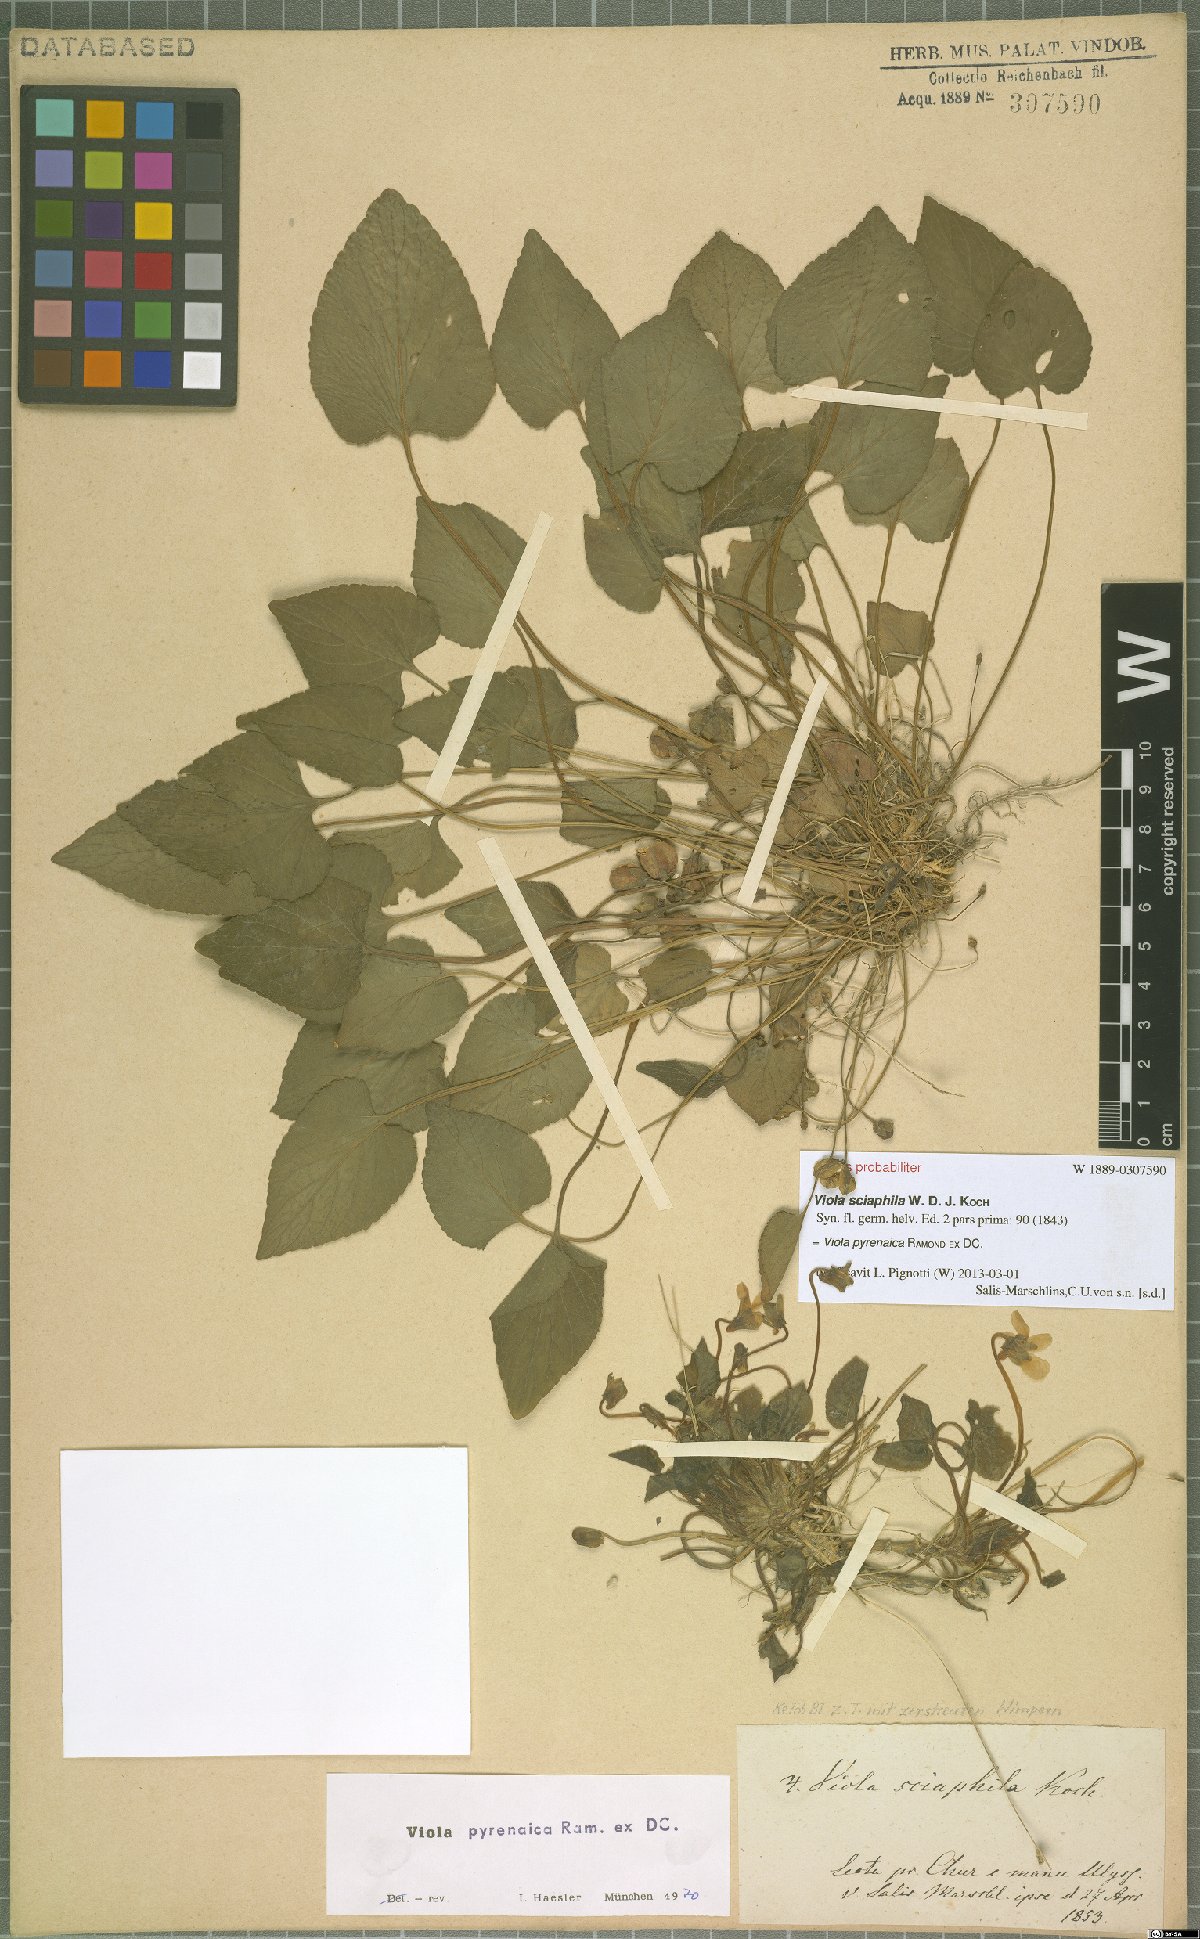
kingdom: Plantae
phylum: Tracheophyta
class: Magnoliopsida
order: Malpighiales
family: Violaceae
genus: Viola
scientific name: Viola pyrenaica
